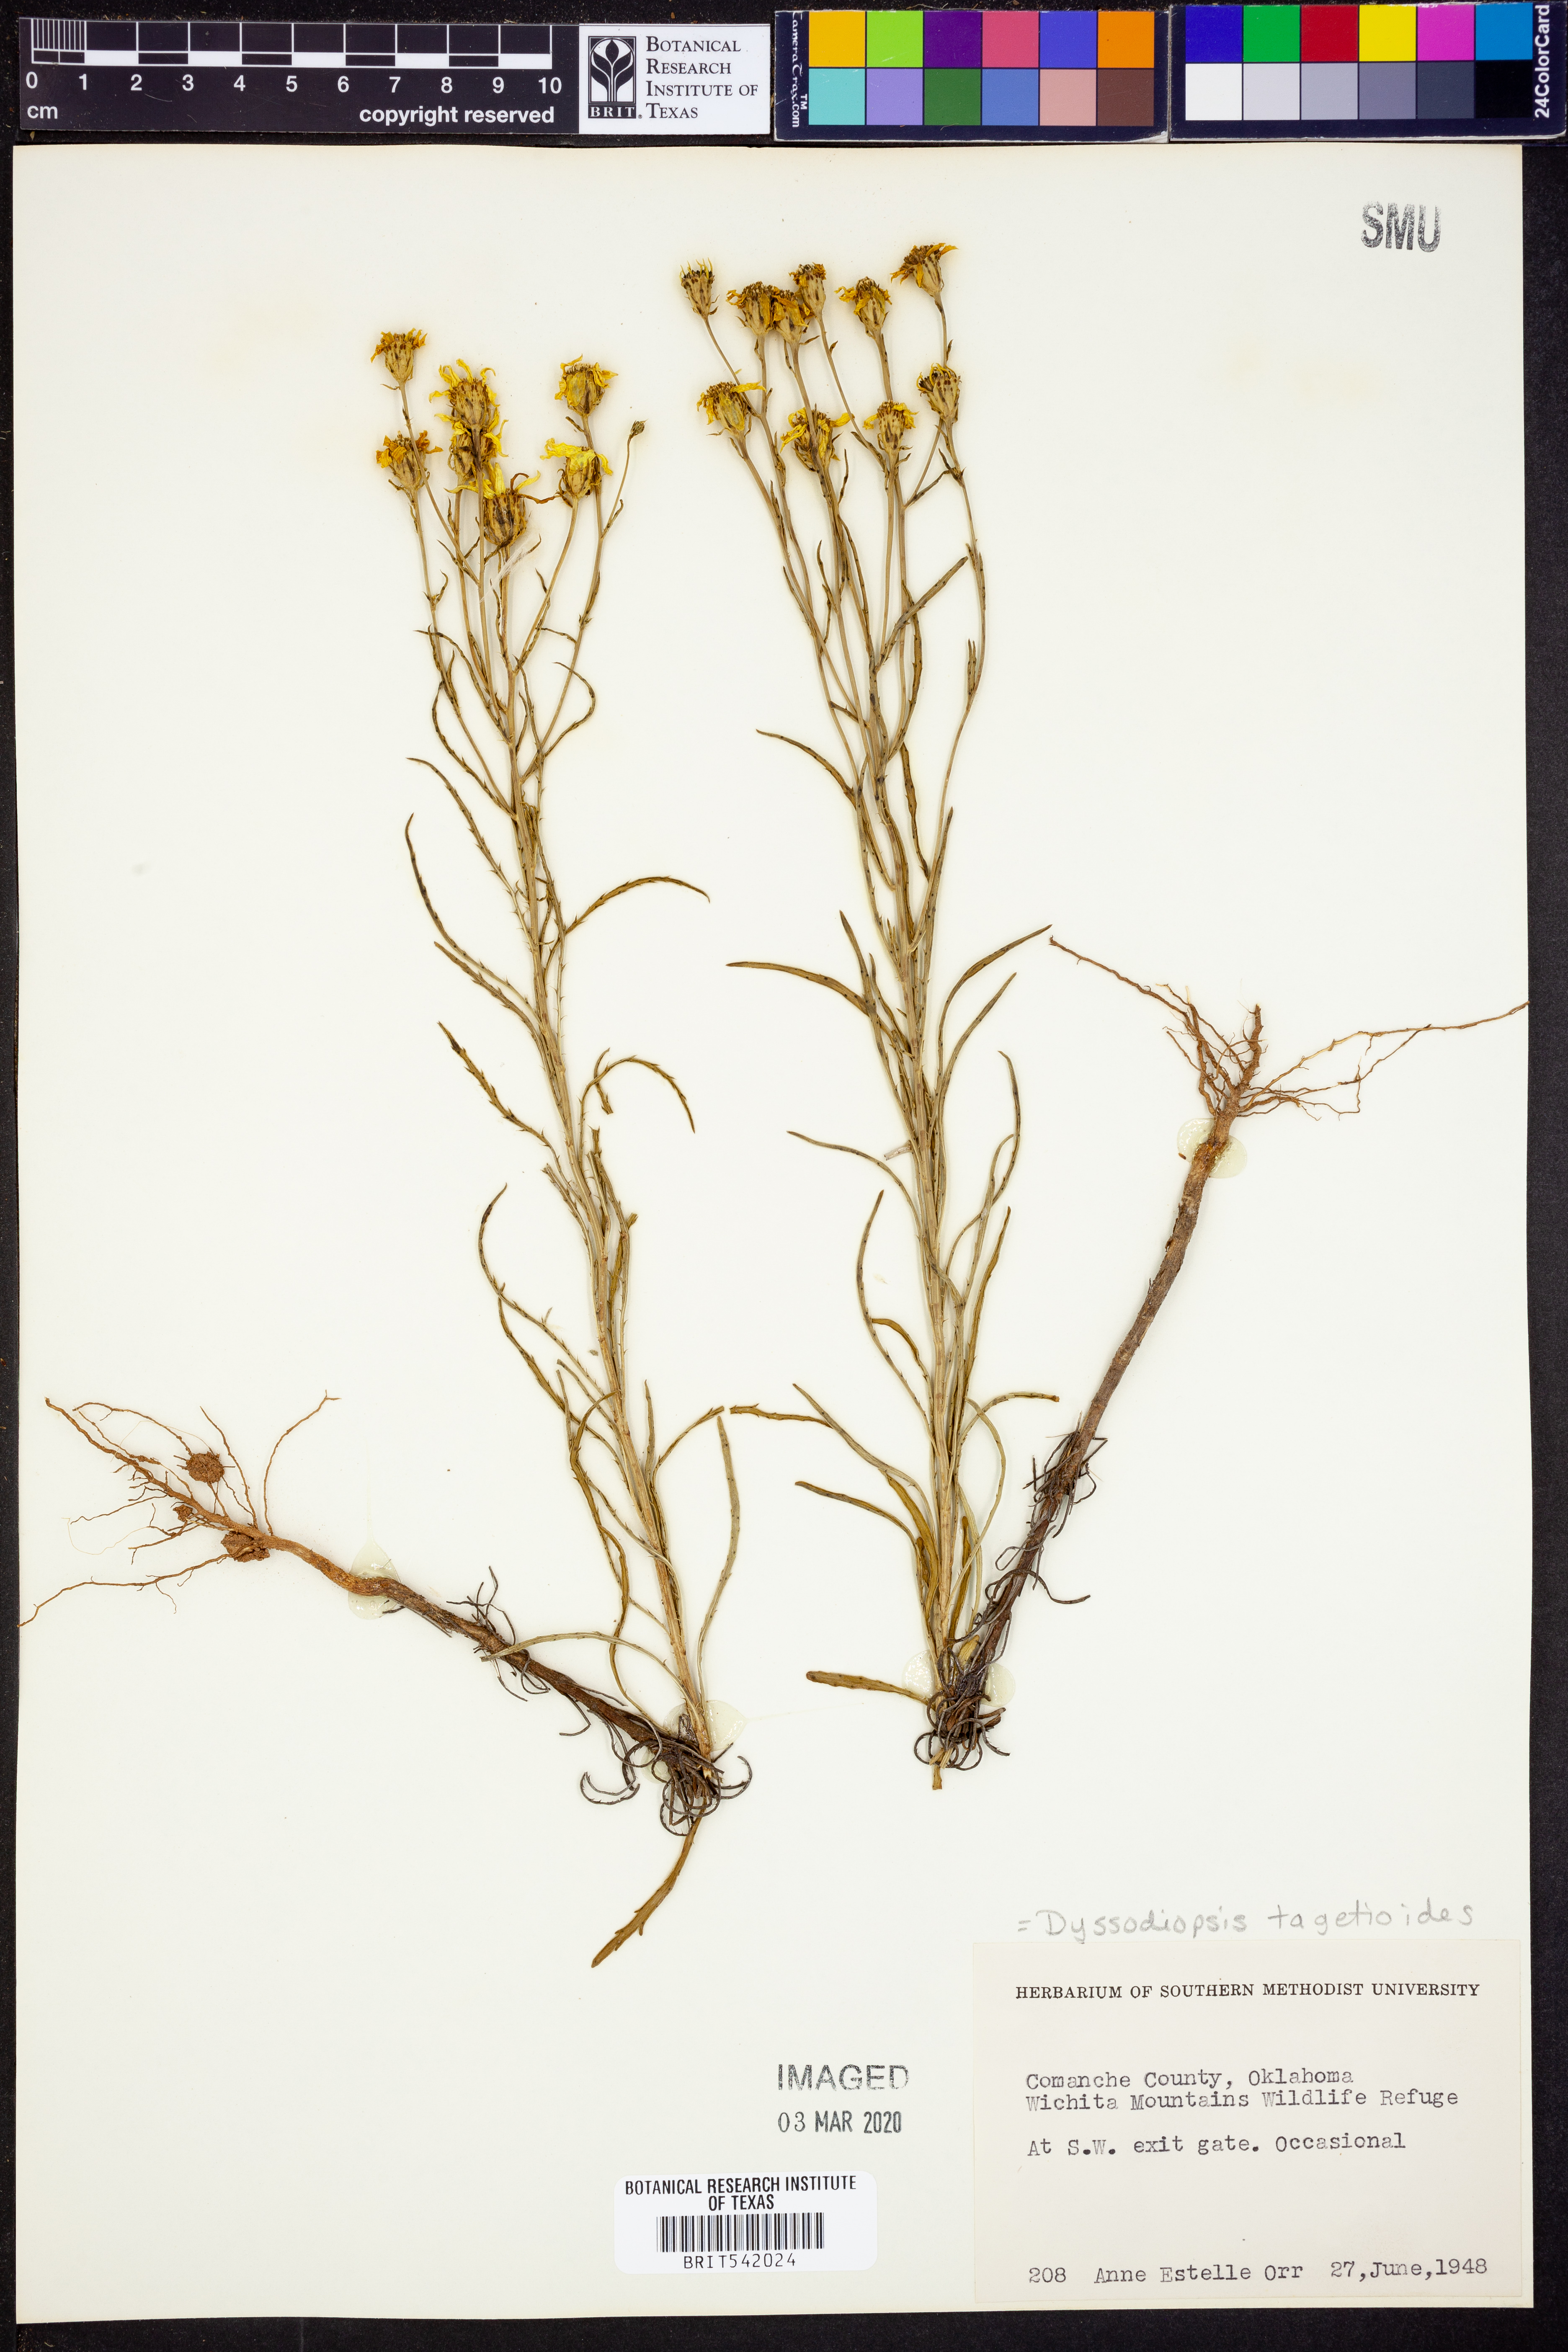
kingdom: Plantae
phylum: Tracheophyta
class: Magnoliopsida
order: Asterales
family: Asteraceae
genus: Dysodiopsis
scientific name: Dysodiopsis tagetoides
